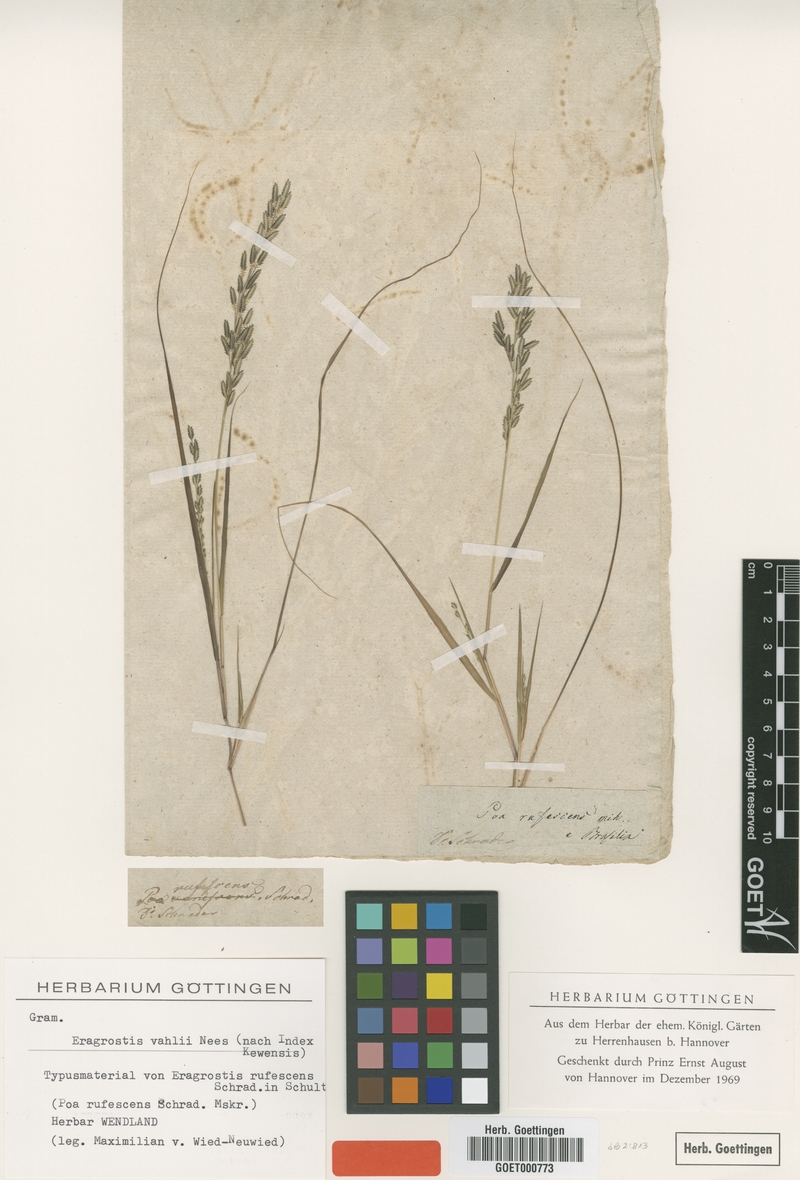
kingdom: Plantae
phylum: Tracheophyta
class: Liliopsida
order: Poales
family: Poaceae
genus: Eragrostis
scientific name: Eragrostis maypurensis
